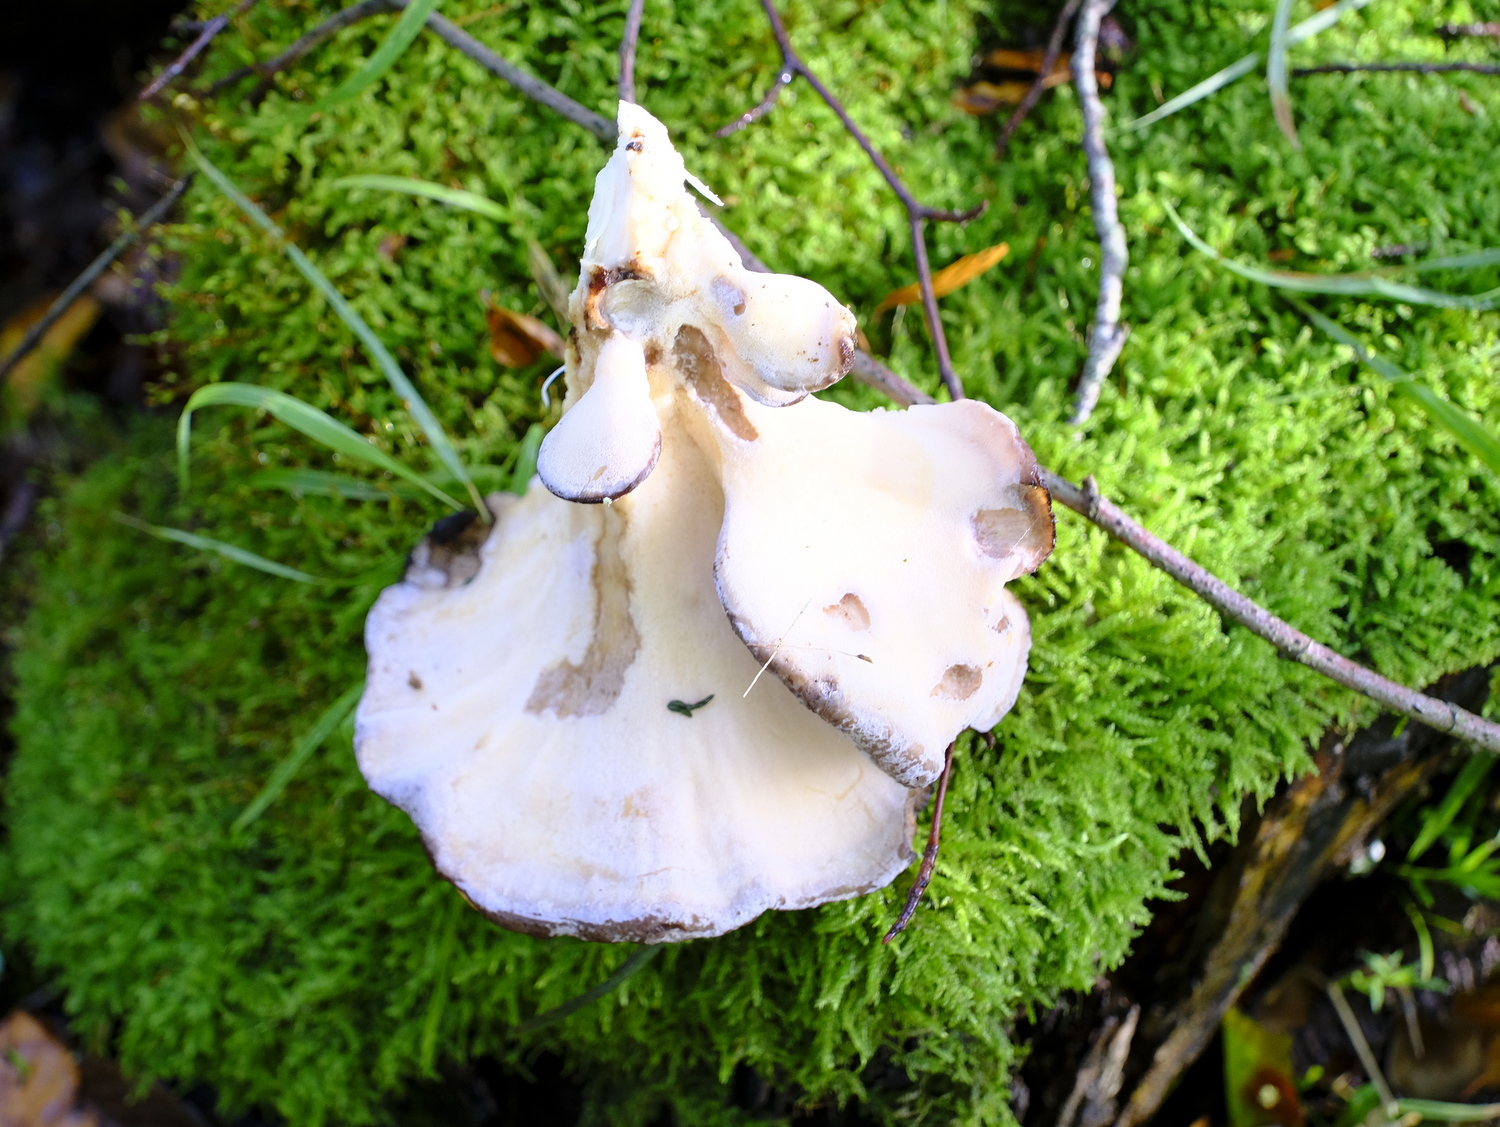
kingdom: Fungi
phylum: Basidiomycota
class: Agaricomycetes
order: Polyporales
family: Meripilaceae
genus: Meripilus
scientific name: Meripilus giganteus
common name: kæmpeporesvamp
